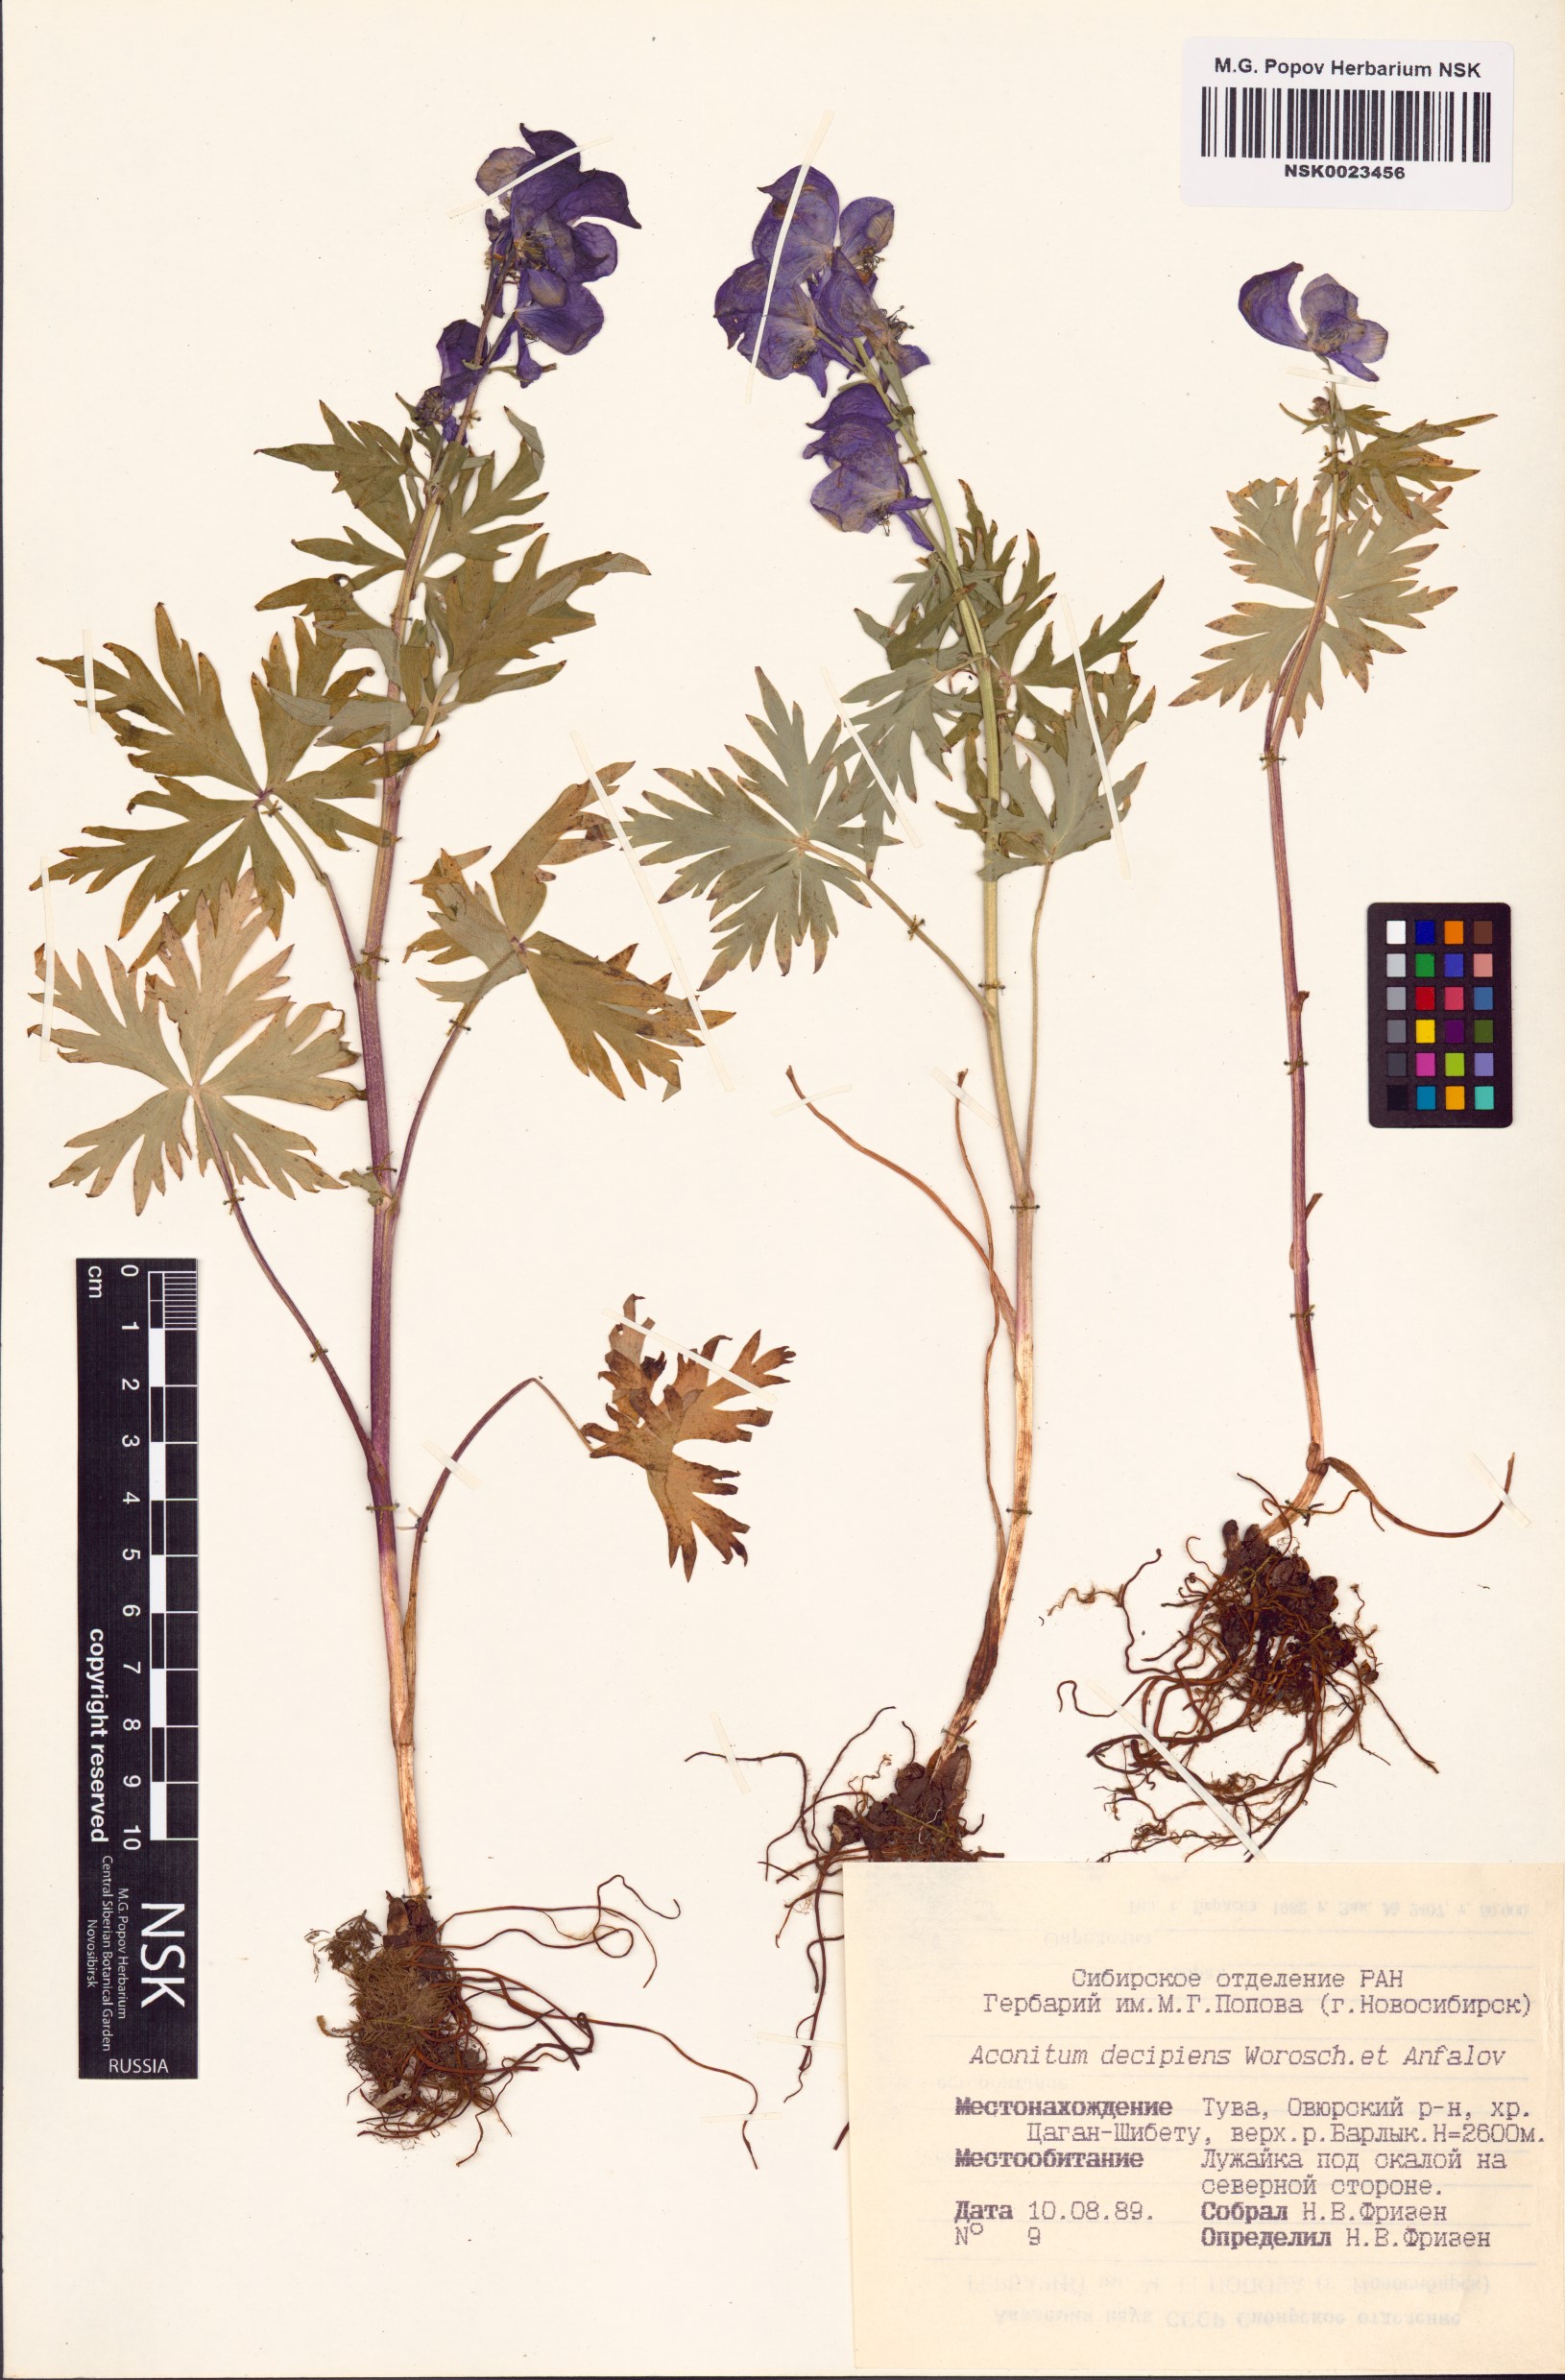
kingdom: Plantae
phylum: Tracheophyta
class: Magnoliopsida
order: Ranunculales
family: Ranunculaceae
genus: Aconitum
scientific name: Aconitum decipiens
